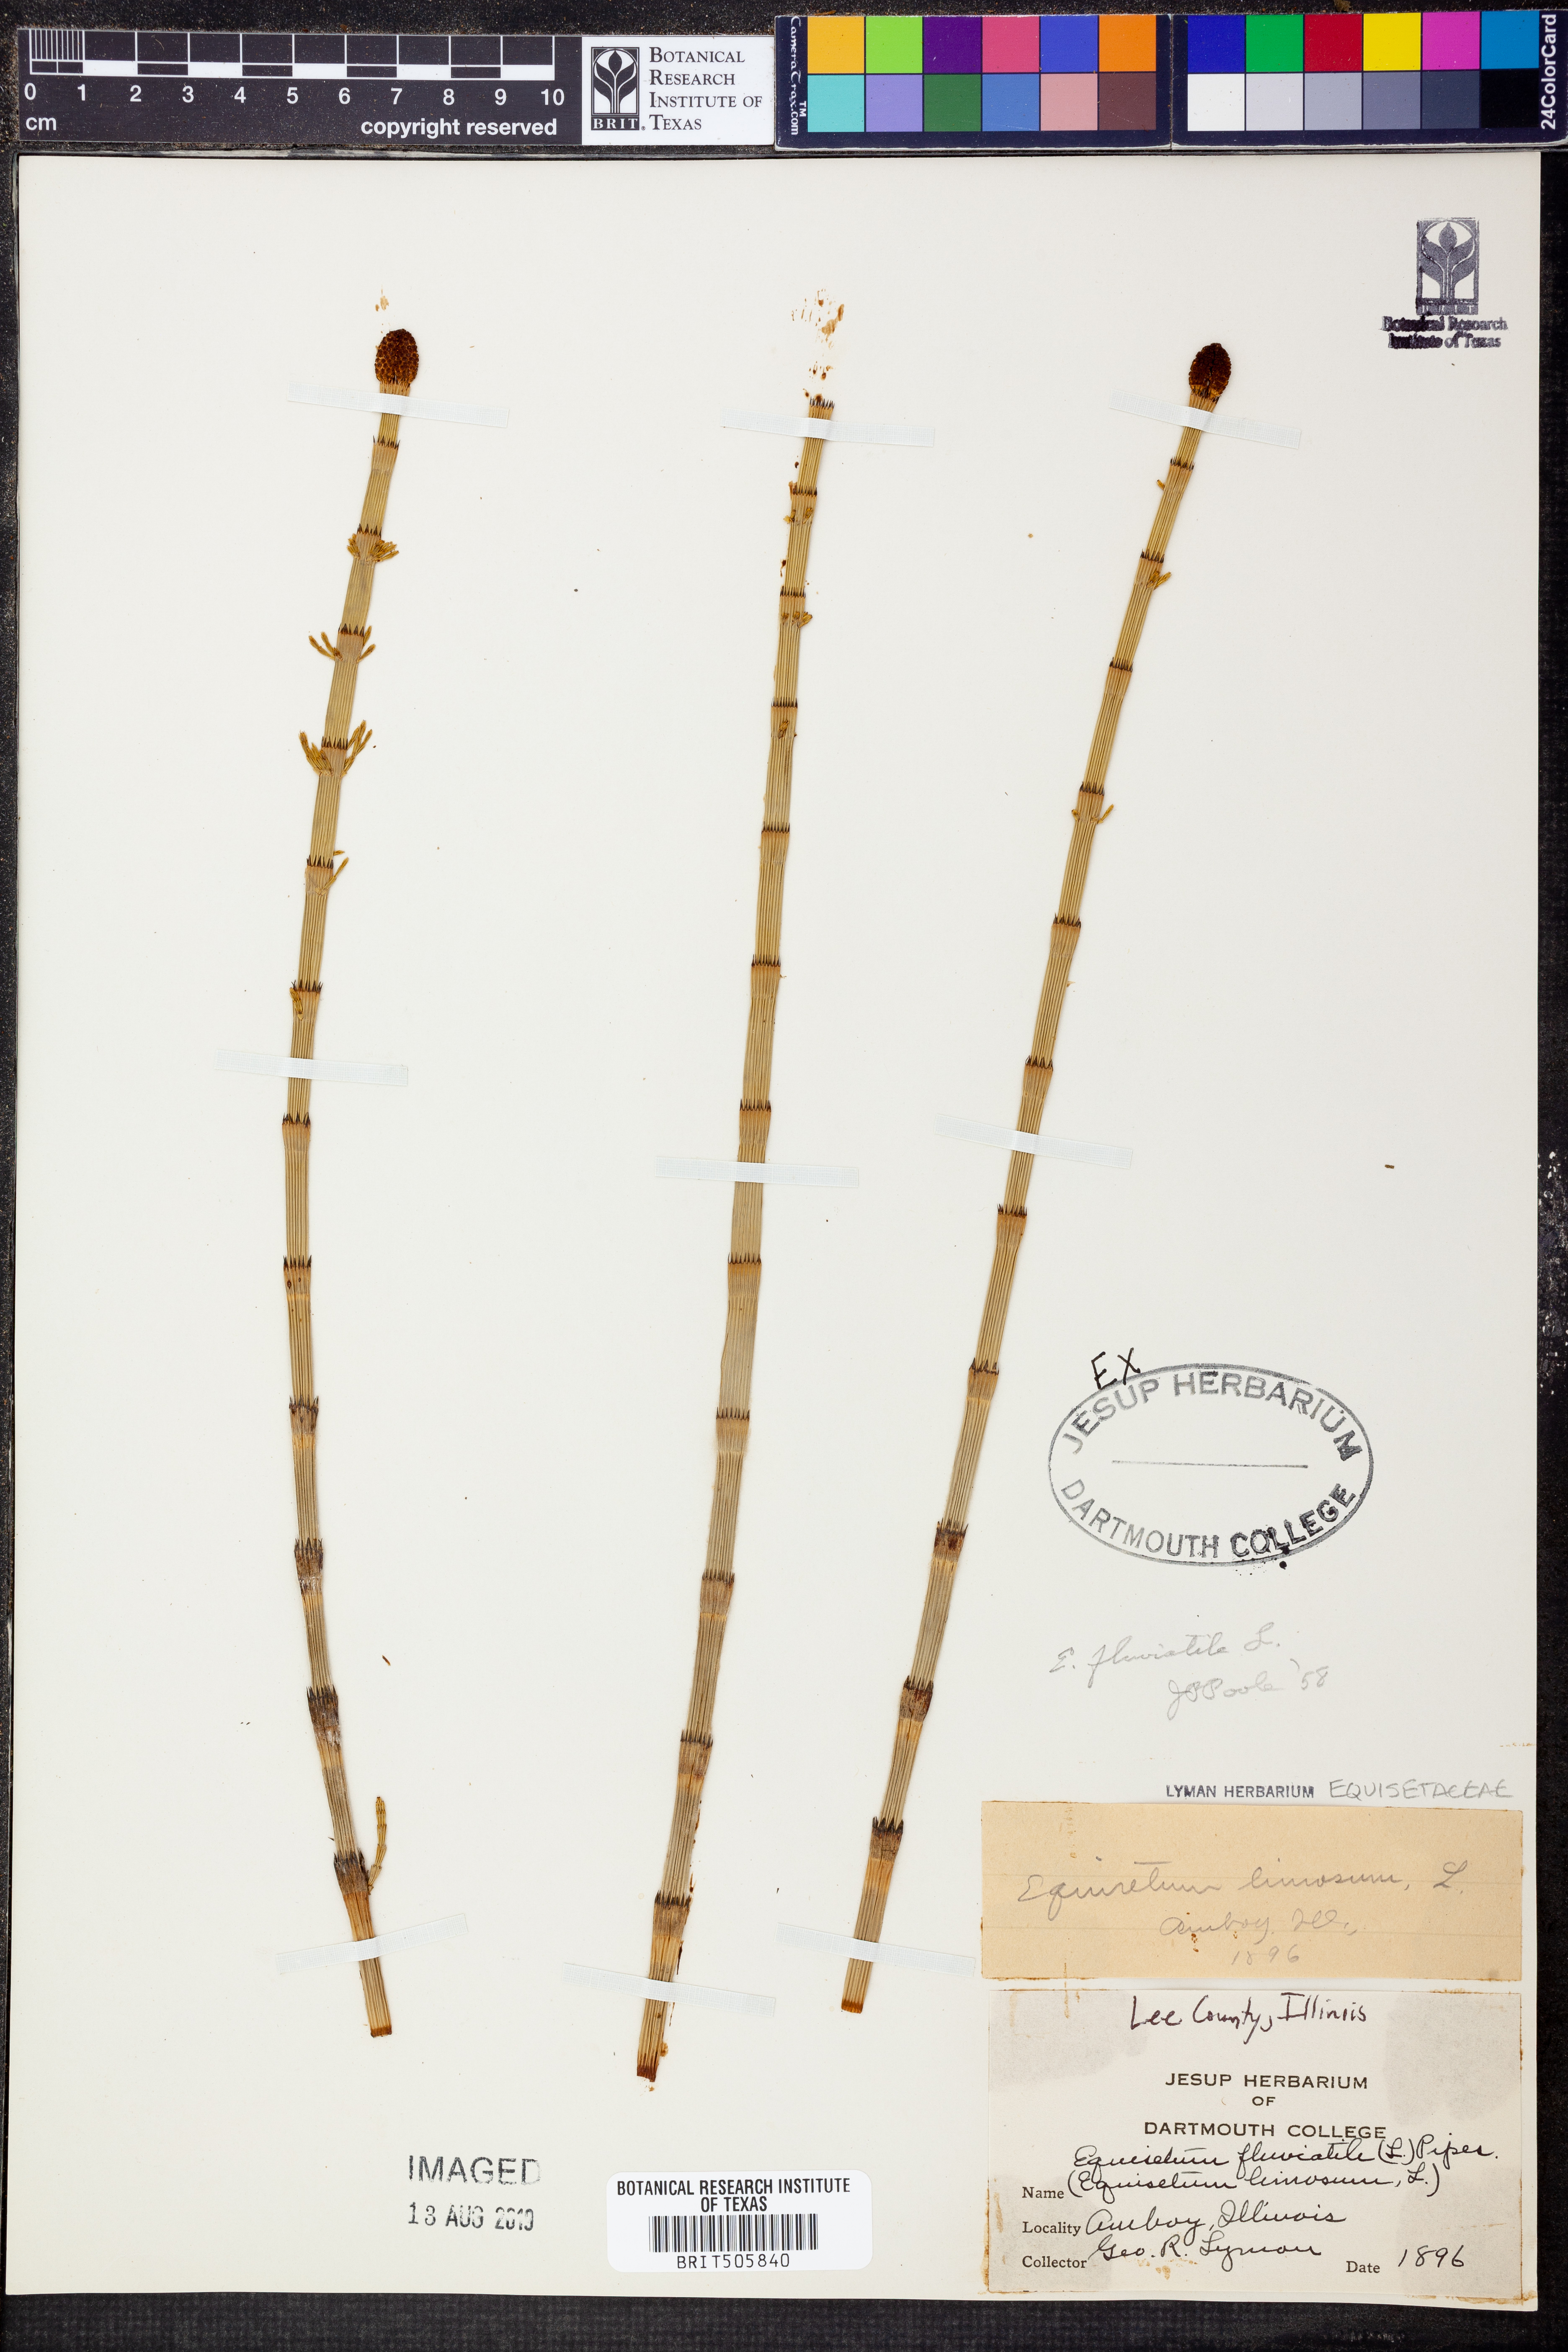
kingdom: Plantae
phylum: Tracheophyta
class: Polypodiopsida
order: Equisetales
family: Equisetaceae
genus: Equisetum
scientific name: Equisetum fluviatile
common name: Water horsetail
